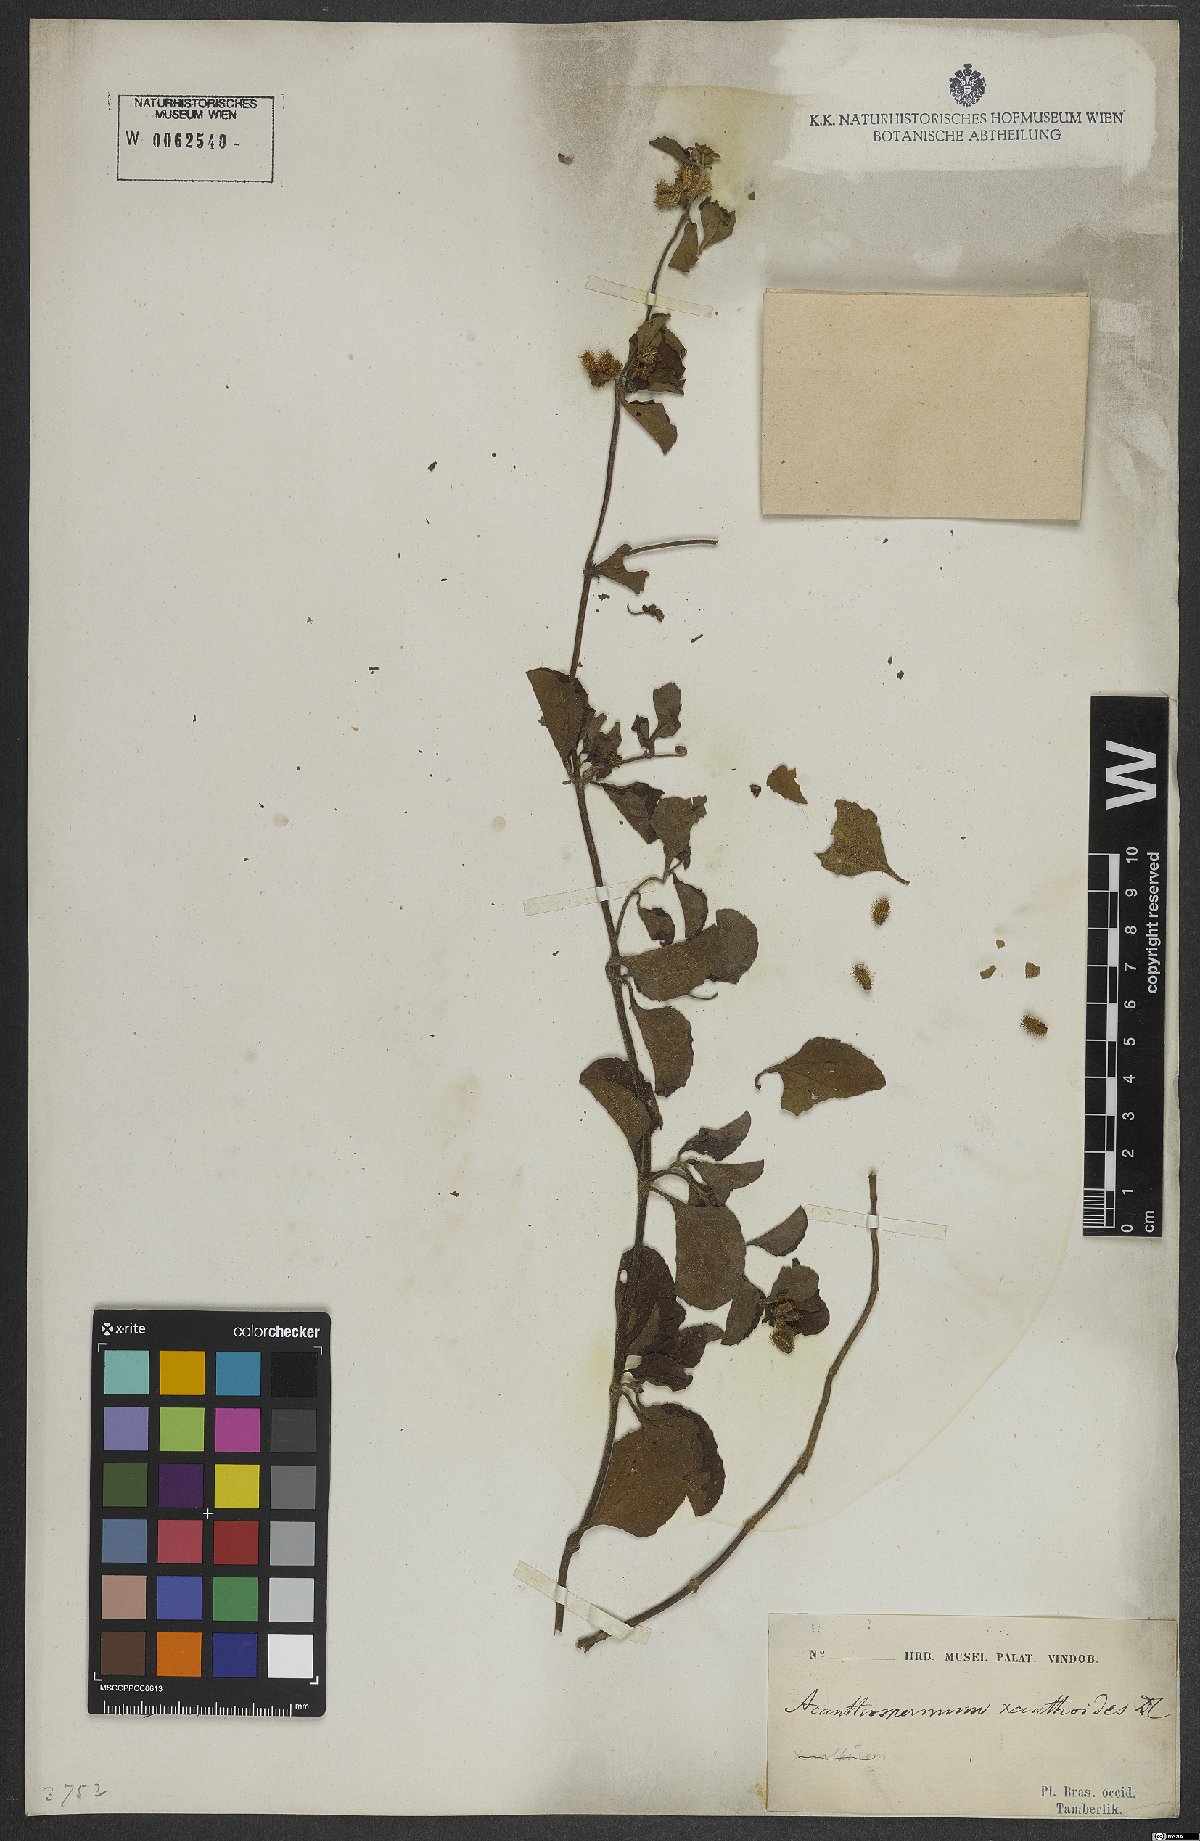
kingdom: Plantae
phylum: Tracheophyta
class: Magnoliopsida
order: Asterales
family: Asteraceae
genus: Acanthospermum
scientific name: Acanthospermum australe
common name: Paraguayan starbur
